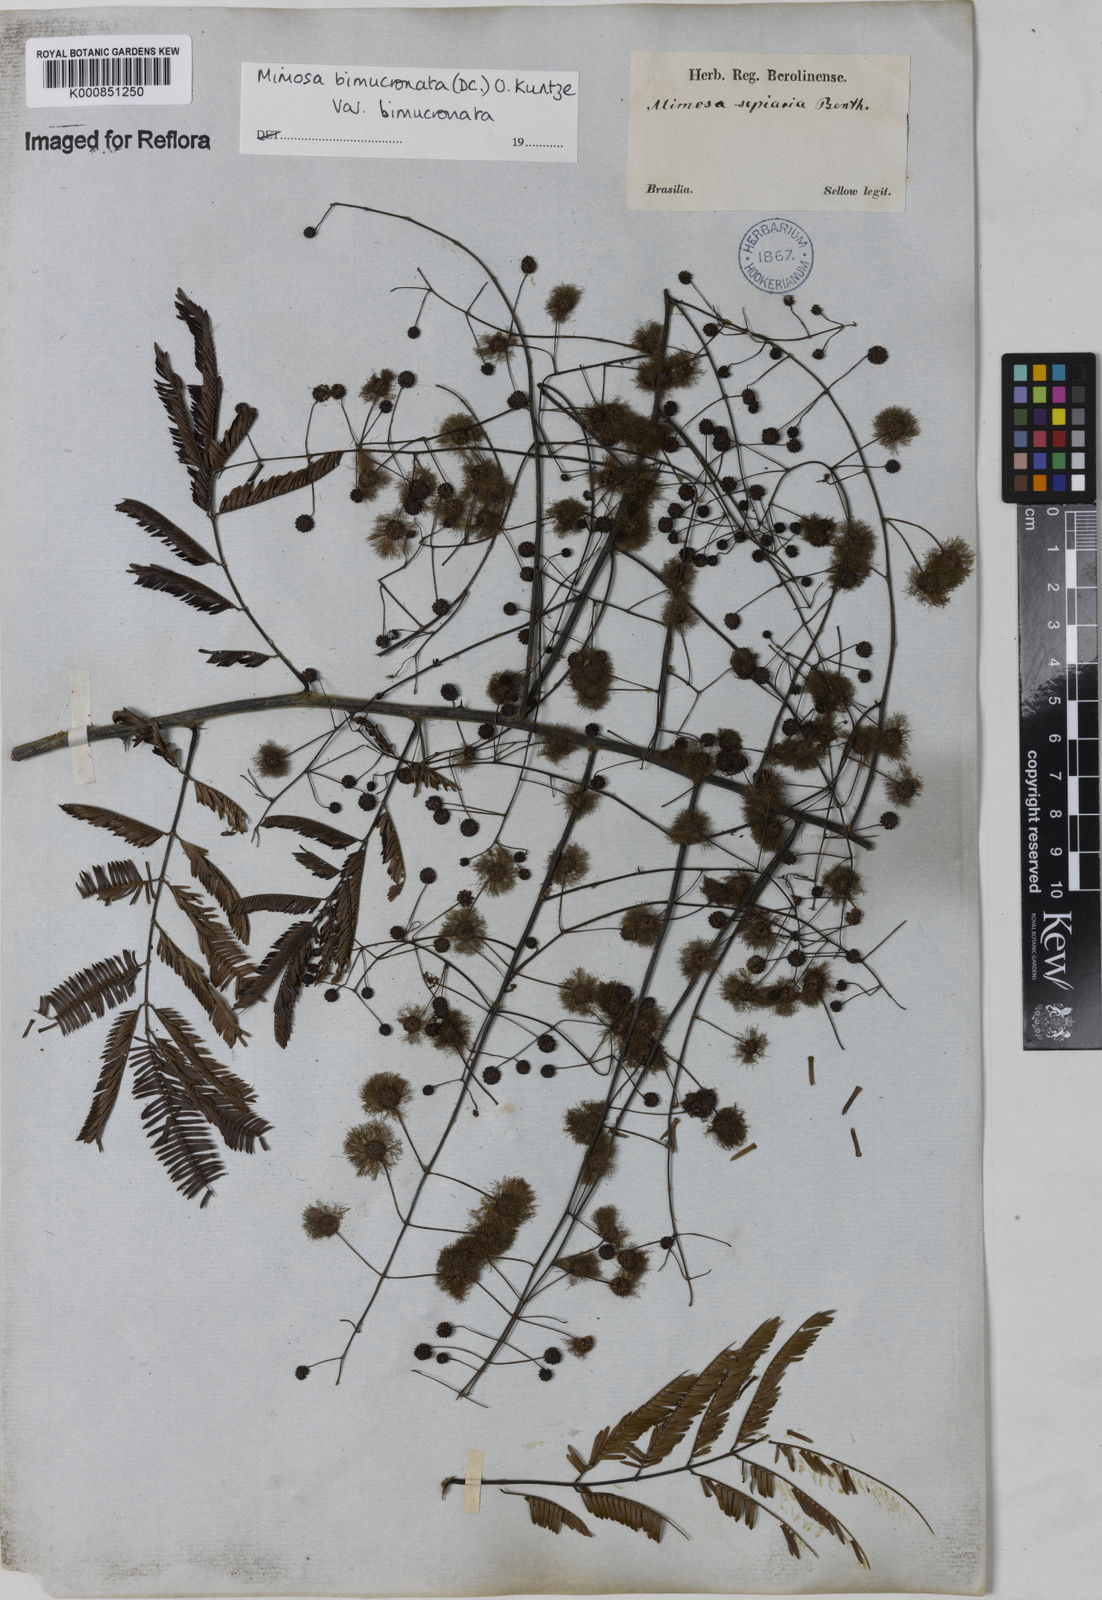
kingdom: Plantae
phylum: Tracheophyta
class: Magnoliopsida
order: Fabales
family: Fabaceae
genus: Mimosa
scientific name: Mimosa bimucronata
